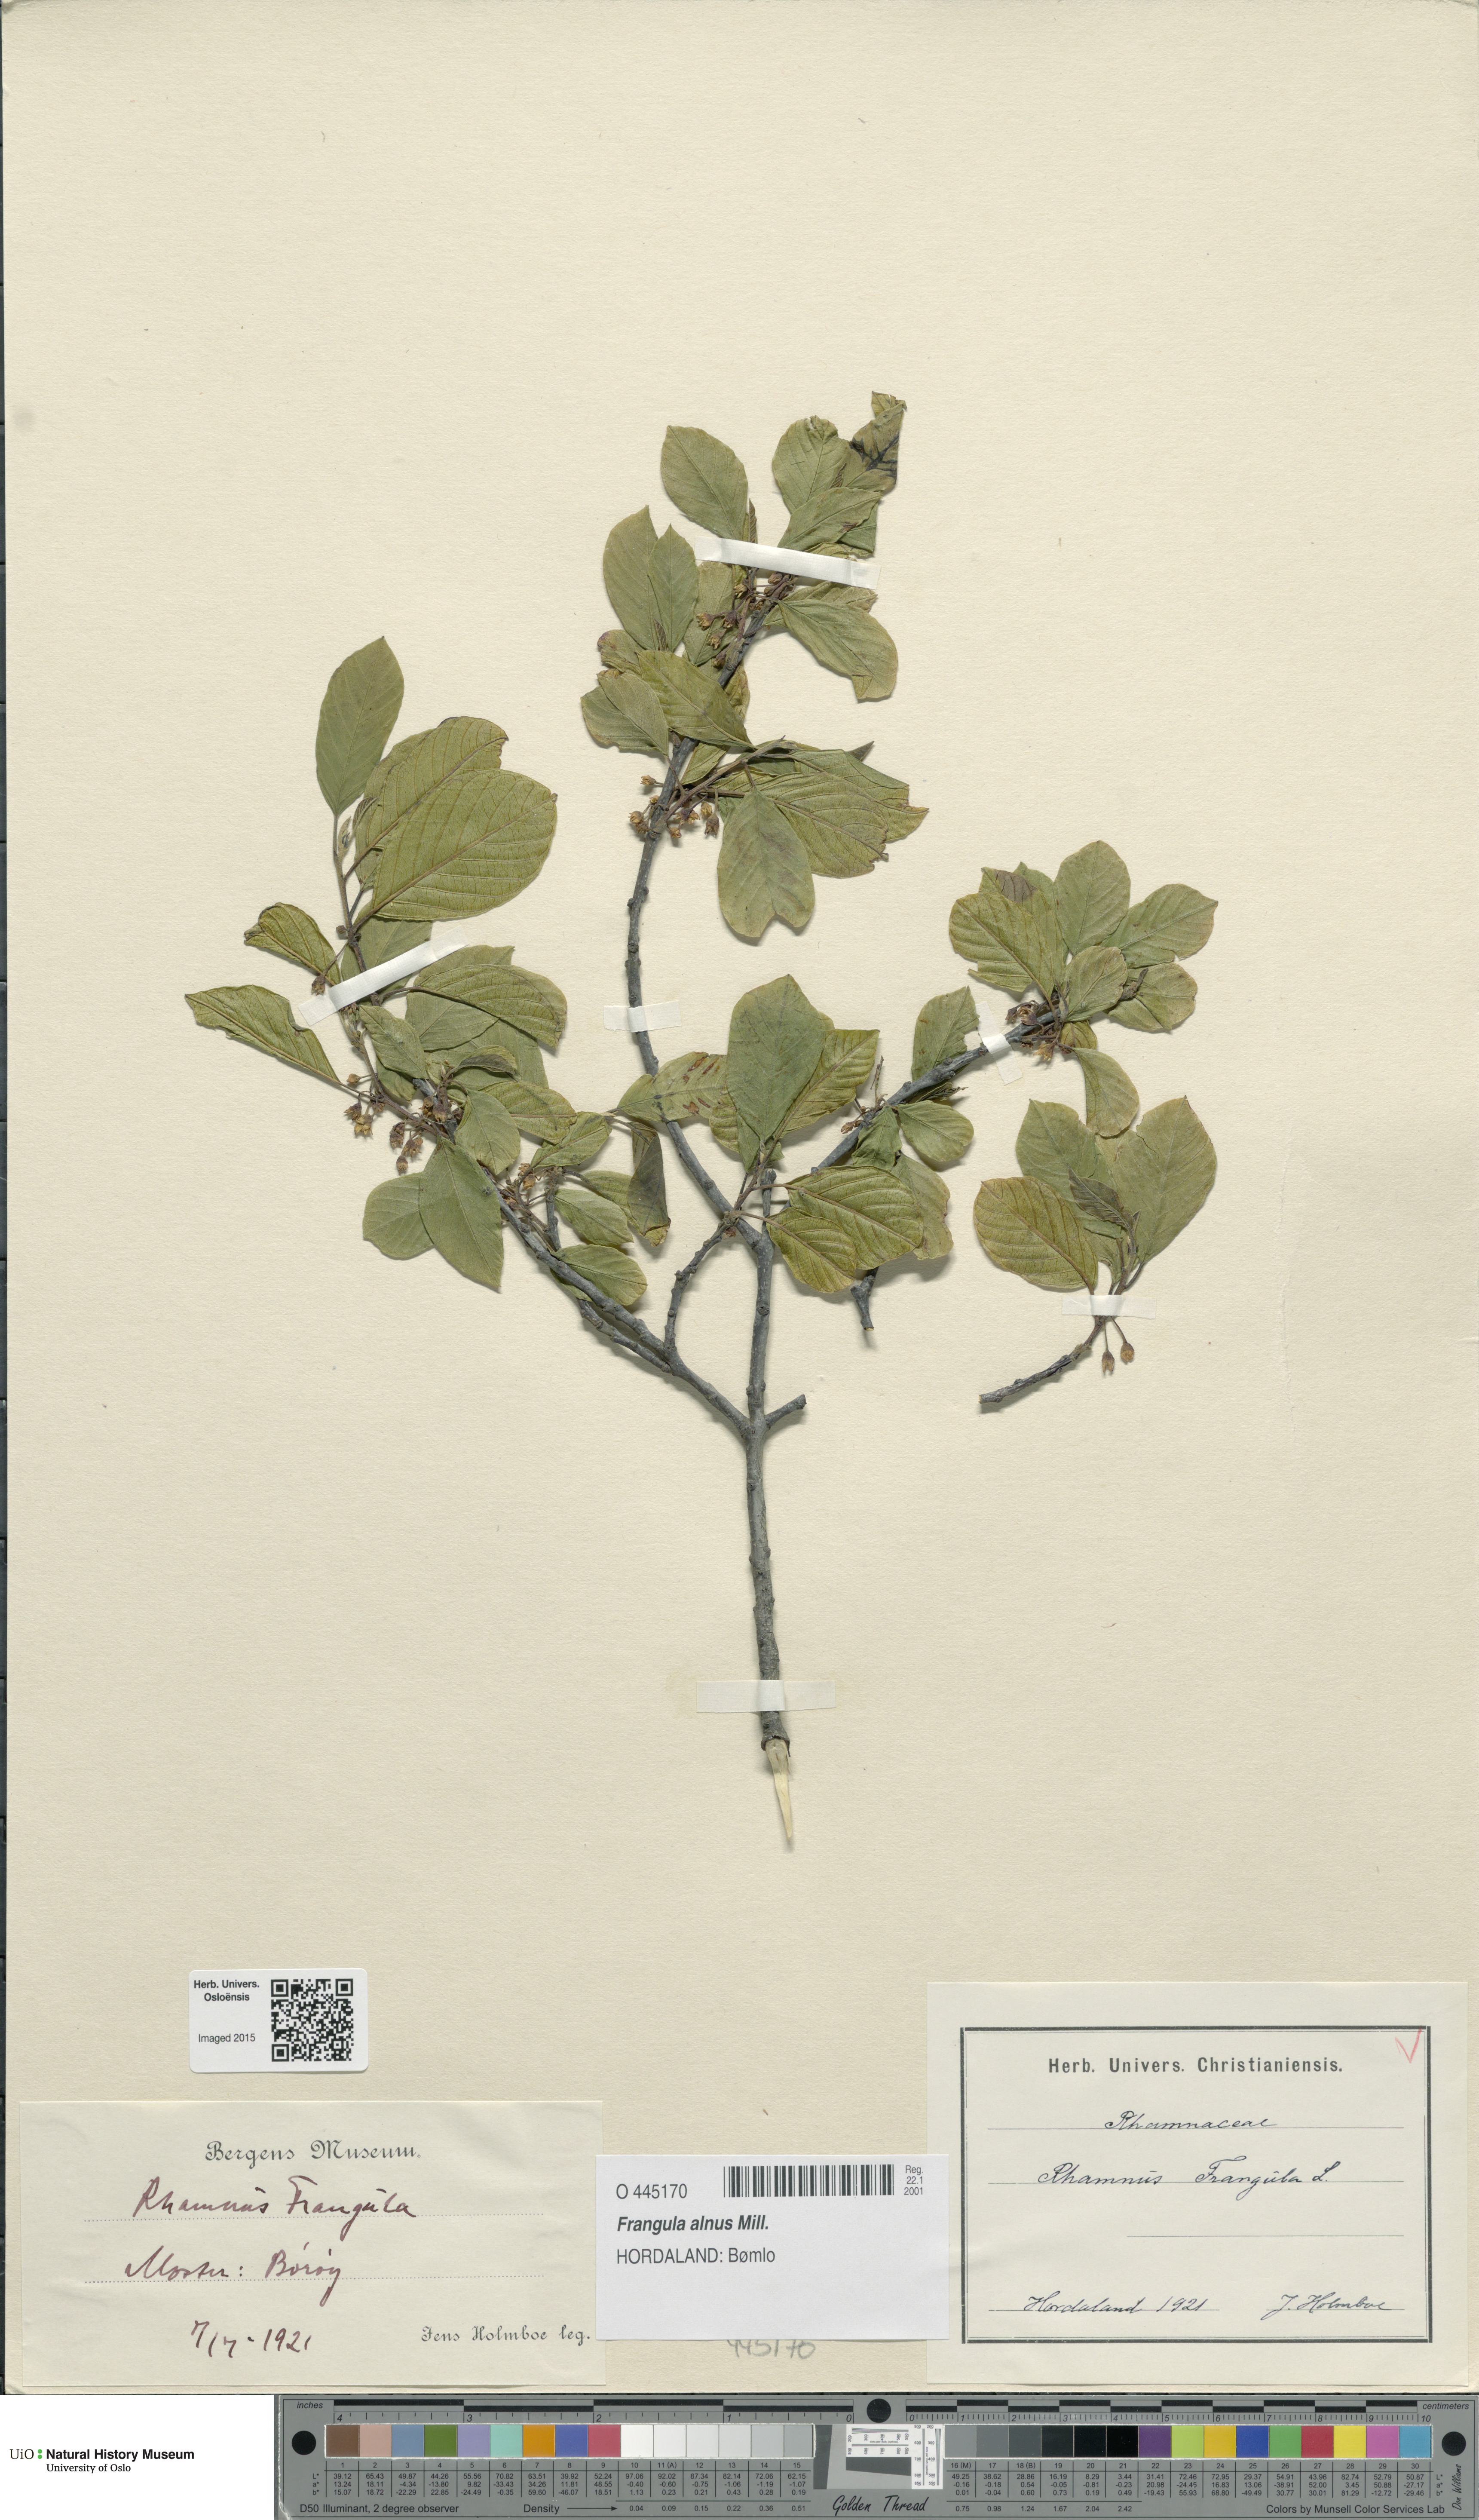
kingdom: Plantae
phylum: Tracheophyta
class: Magnoliopsida
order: Rosales
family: Rhamnaceae
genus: Frangula
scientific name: Frangula alnus
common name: Alder buckthorn
